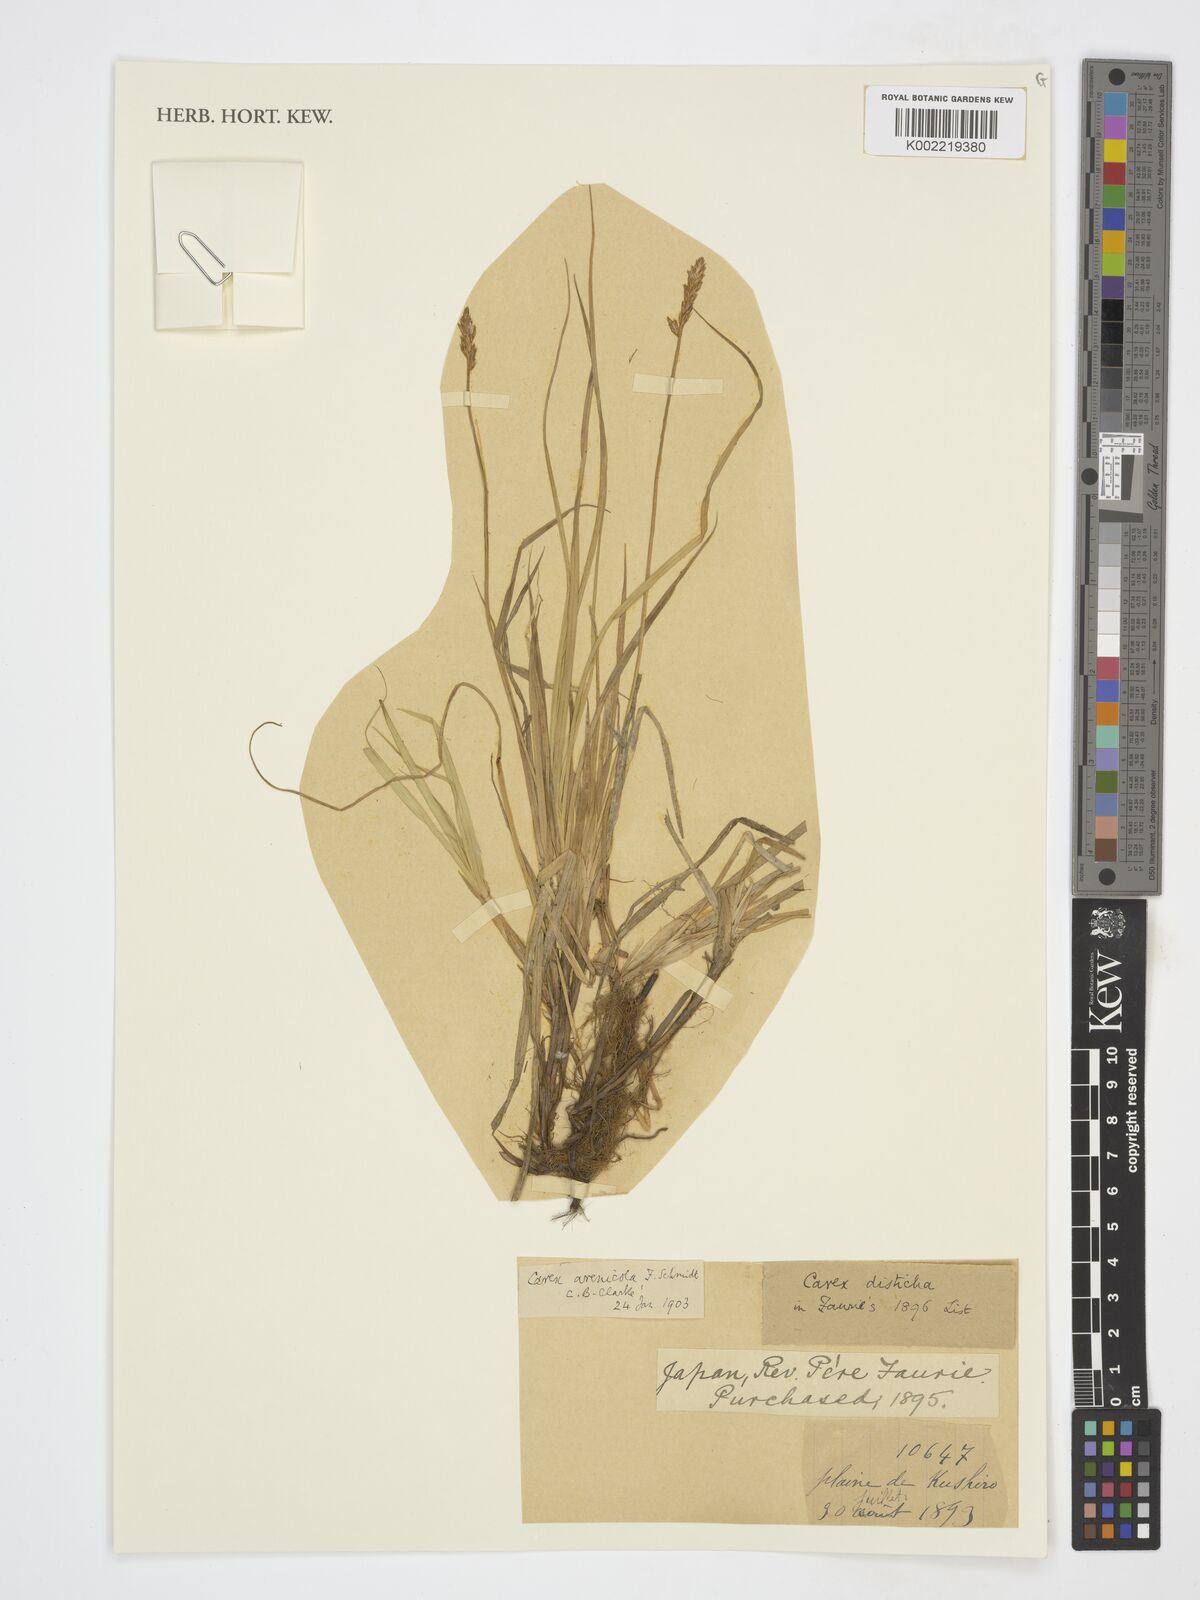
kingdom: Plantae
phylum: Tracheophyta
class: Liliopsida
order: Poales
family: Cyperaceae
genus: Carex
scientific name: Carex arenicola
